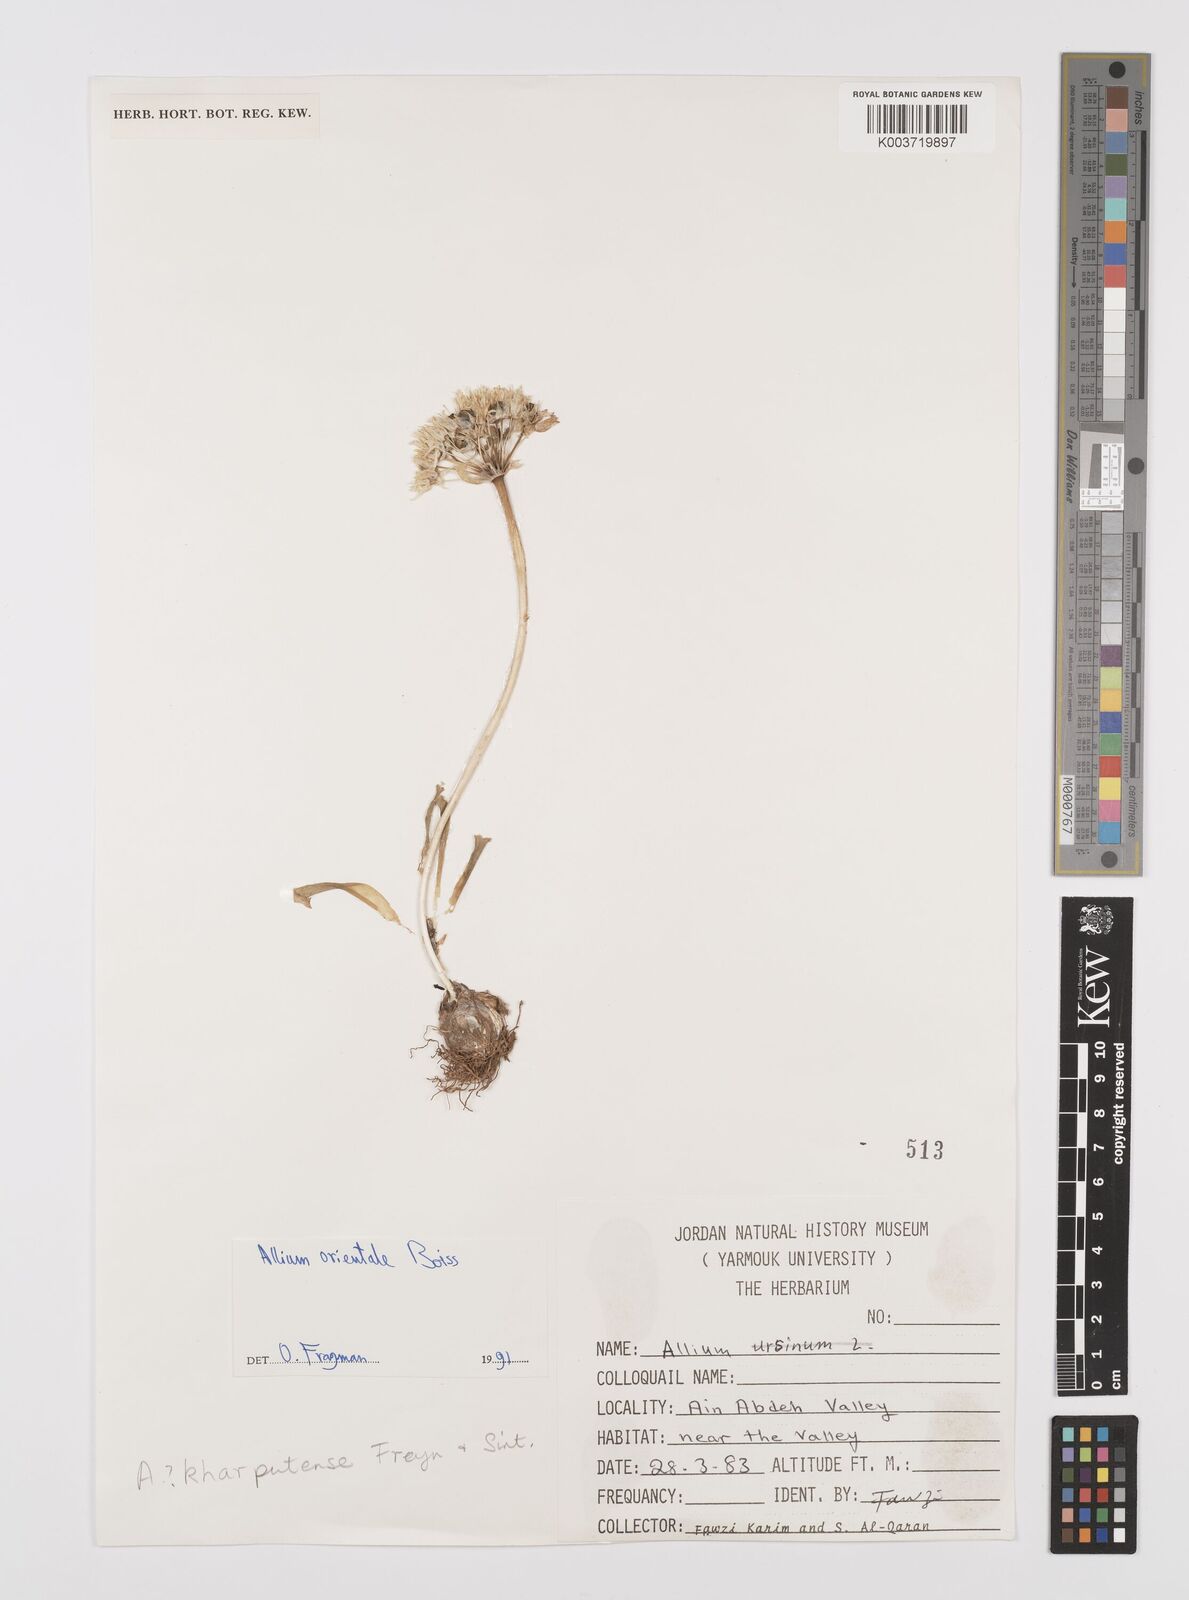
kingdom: Plantae
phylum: Tracheophyta
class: Liliopsida
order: Asparagales
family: Amaryllidaceae
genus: Allium
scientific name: Allium orientale
